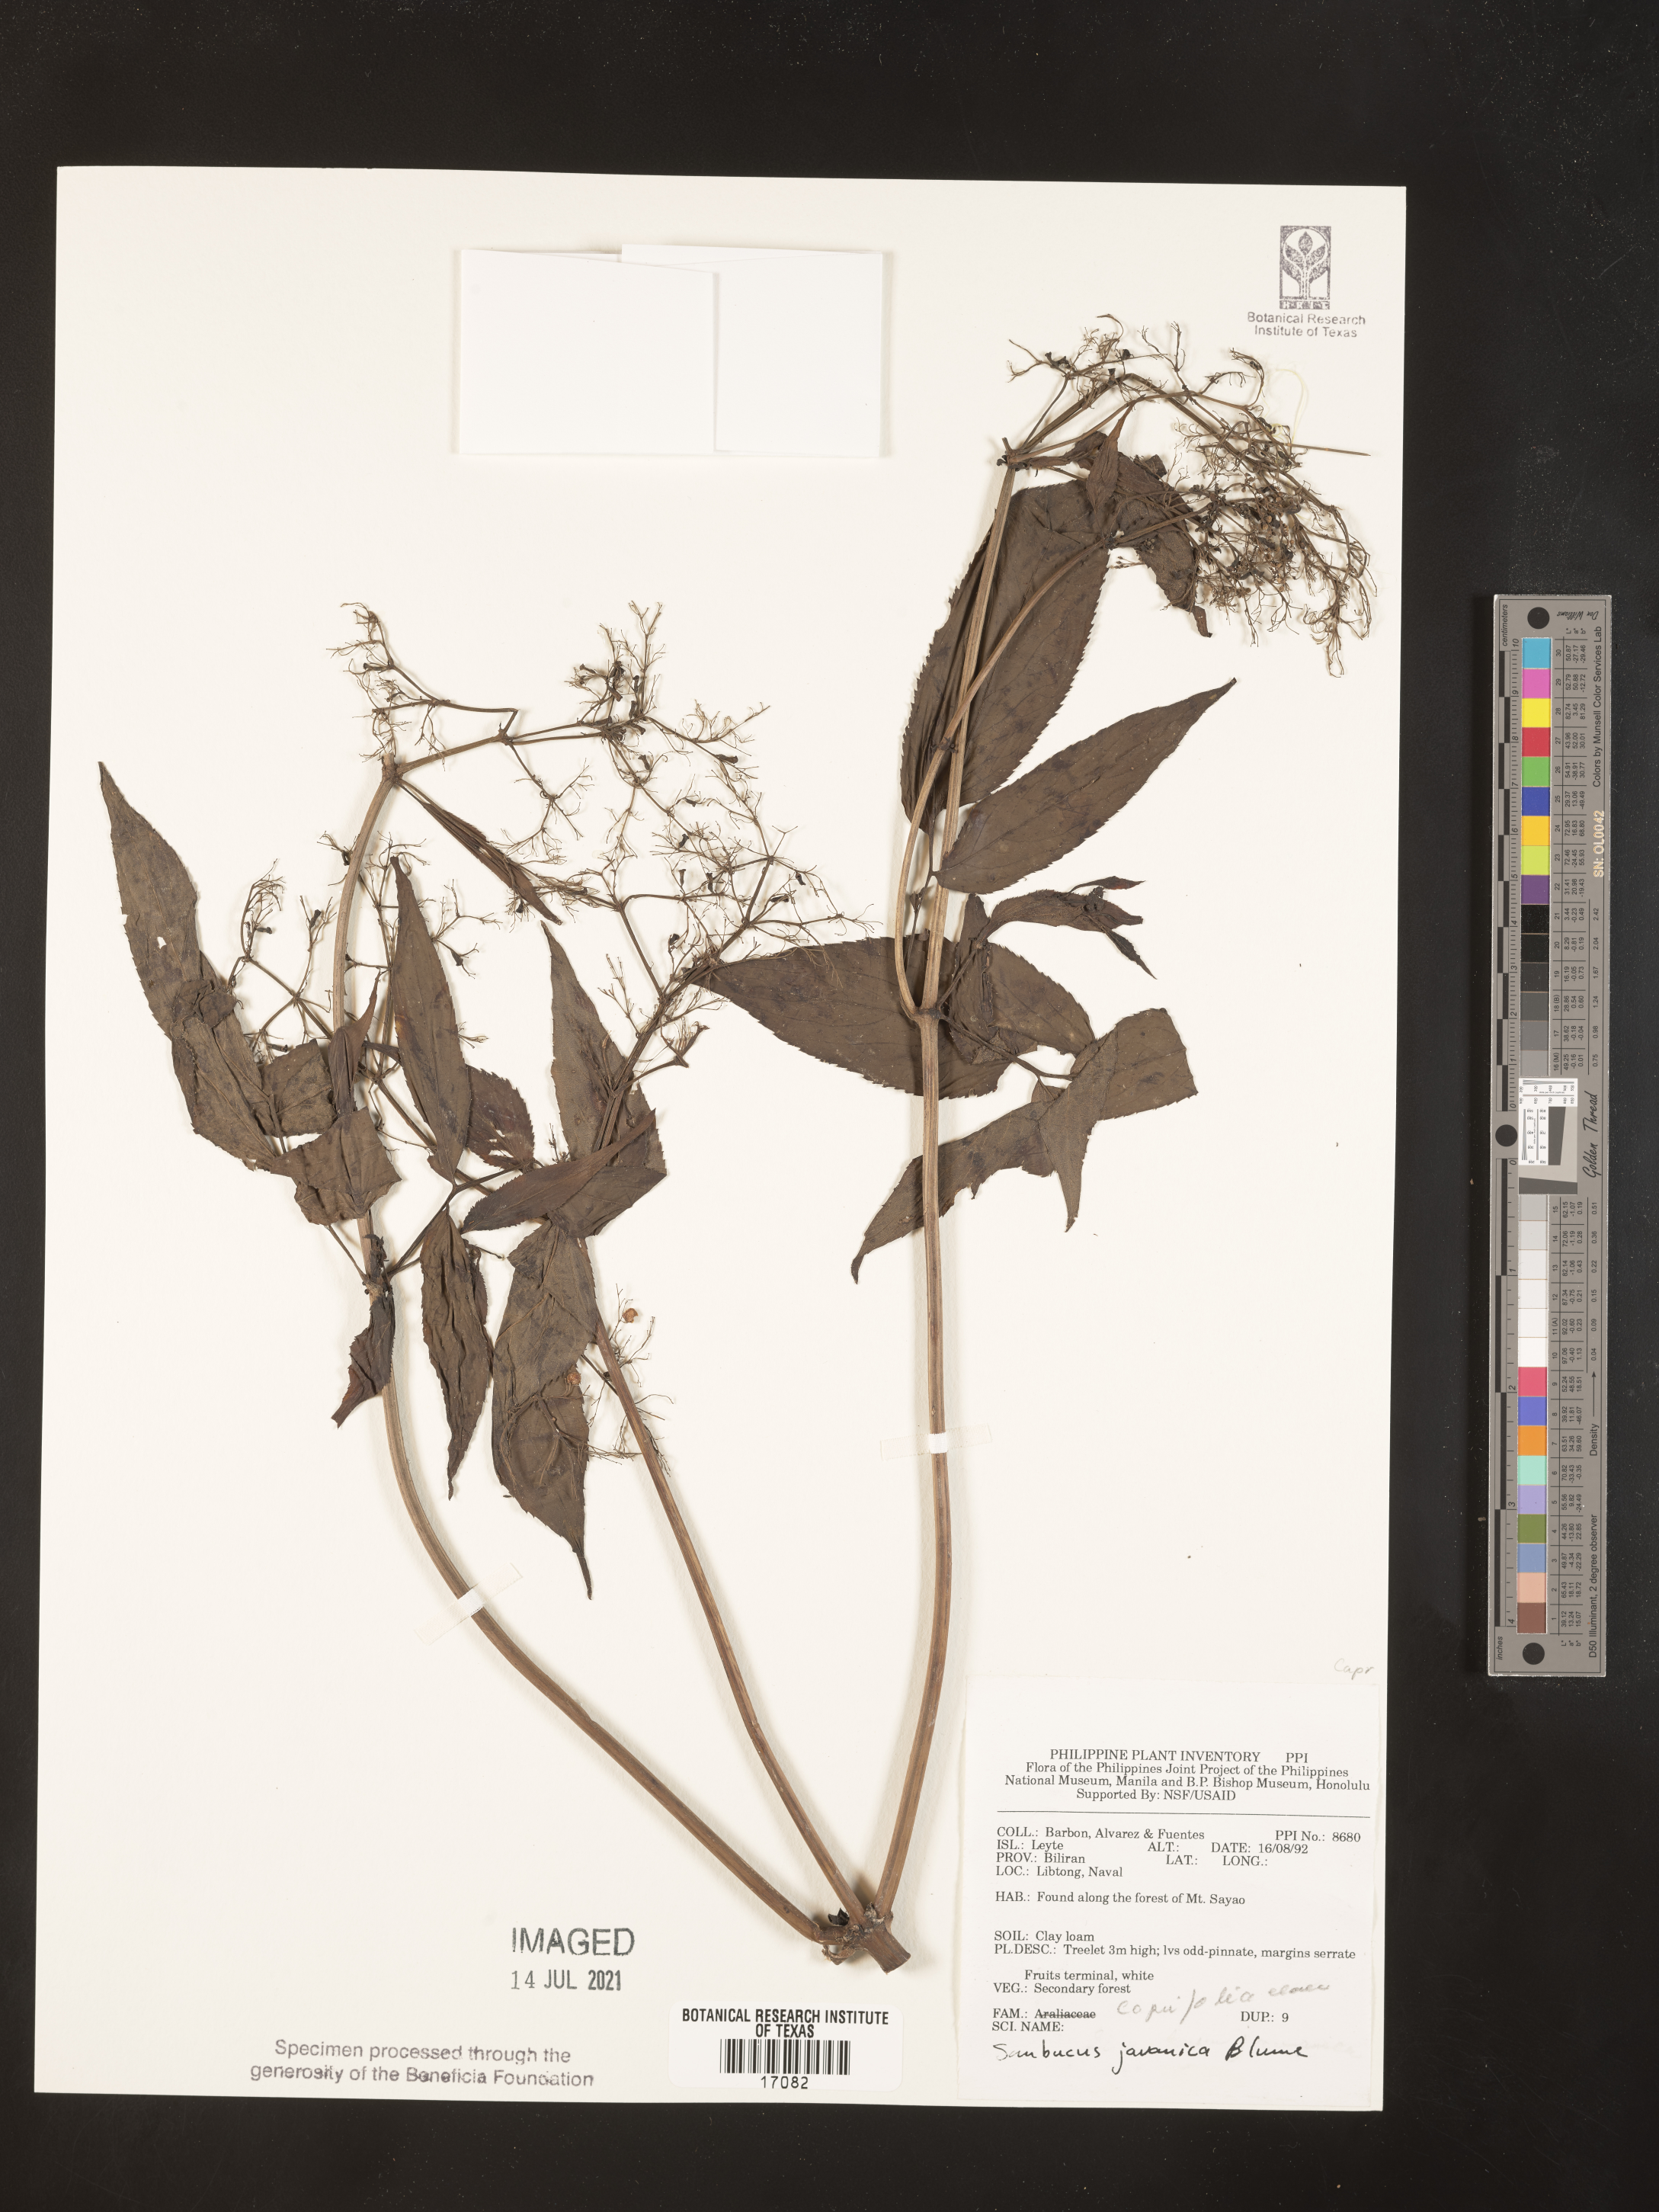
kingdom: Plantae
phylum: Tracheophyta
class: Magnoliopsida
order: Dipsacales
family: Viburnaceae
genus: Sambucus
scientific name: Sambucus javanica
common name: Chinese elder
